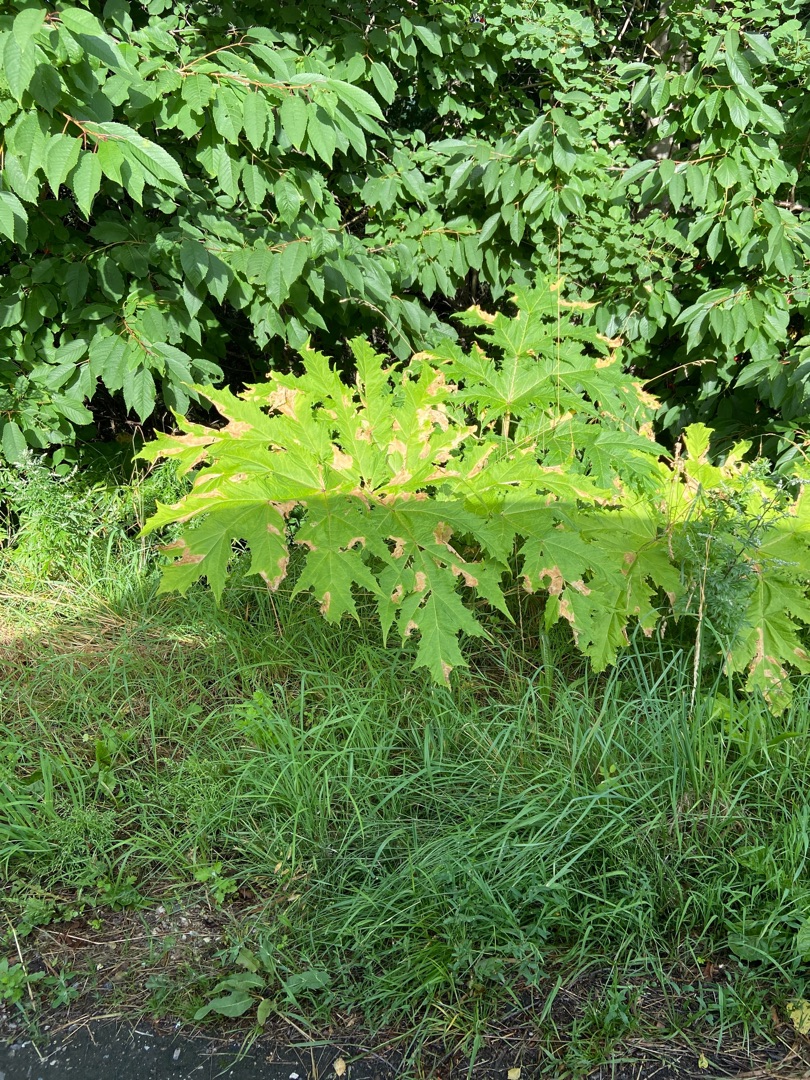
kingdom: Plantae
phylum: Tracheophyta
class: Magnoliopsida
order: Apiales
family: Apiaceae
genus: Heracleum
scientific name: Heracleum mantegazzianum
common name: Kæmpe-bjørneklo
